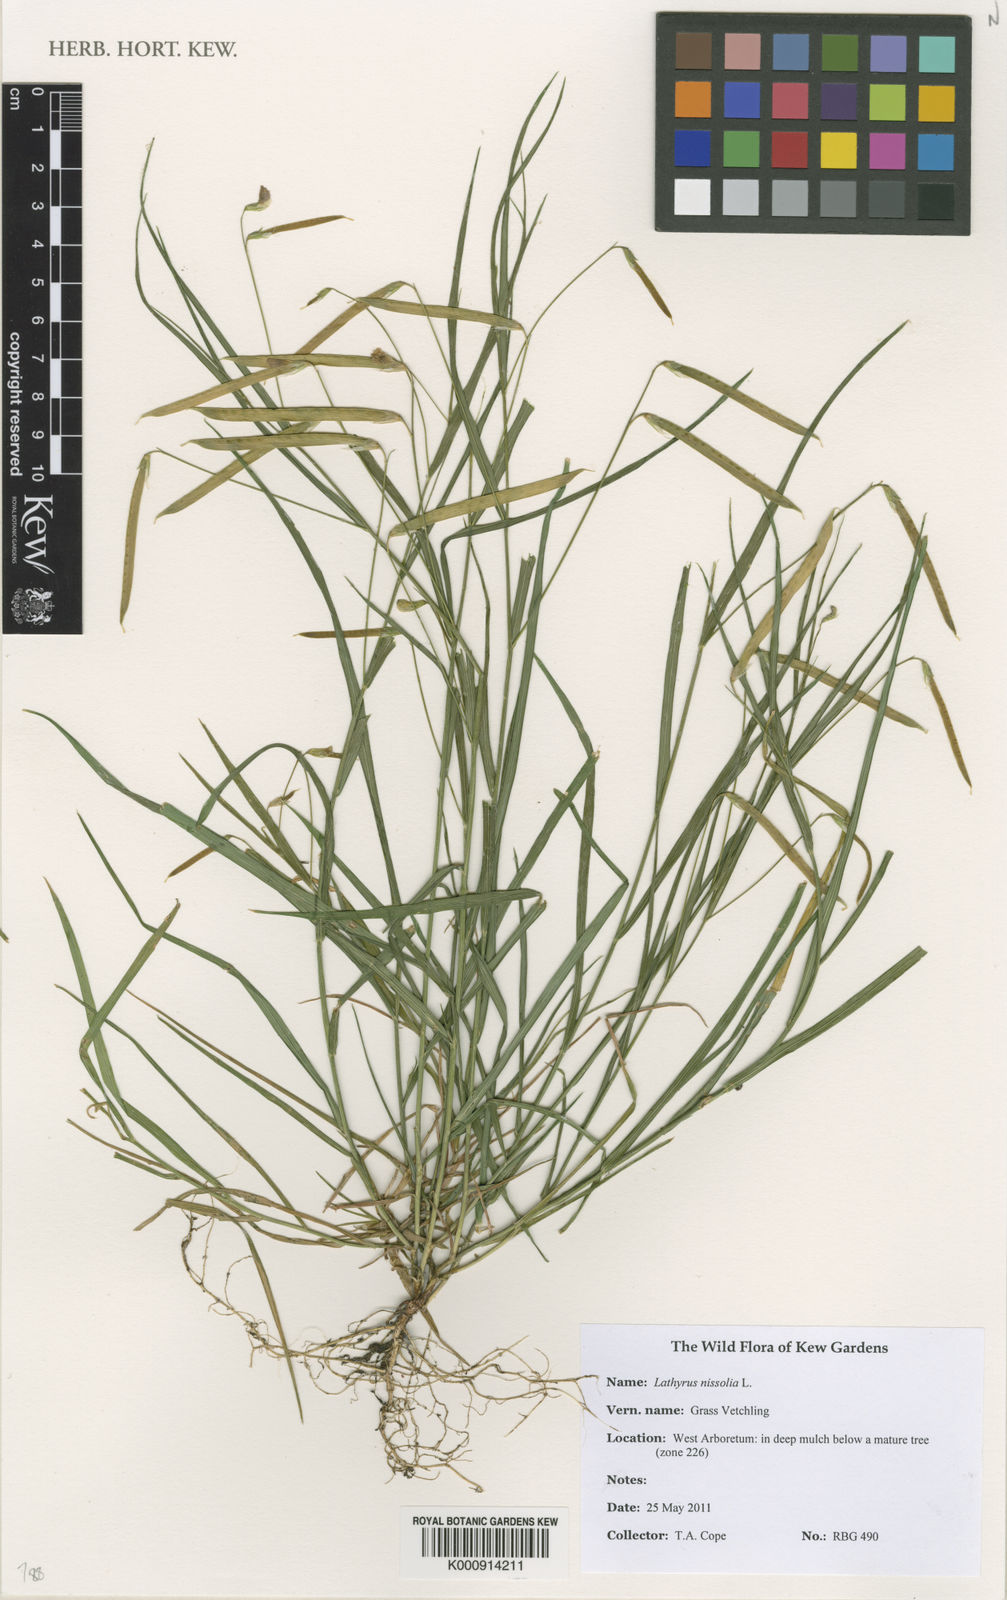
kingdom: Plantae
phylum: Tracheophyta
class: Magnoliopsida
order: Fabales
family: Fabaceae
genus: Lathyrus
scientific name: Lathyrus nissolia
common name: Grass vetchling
